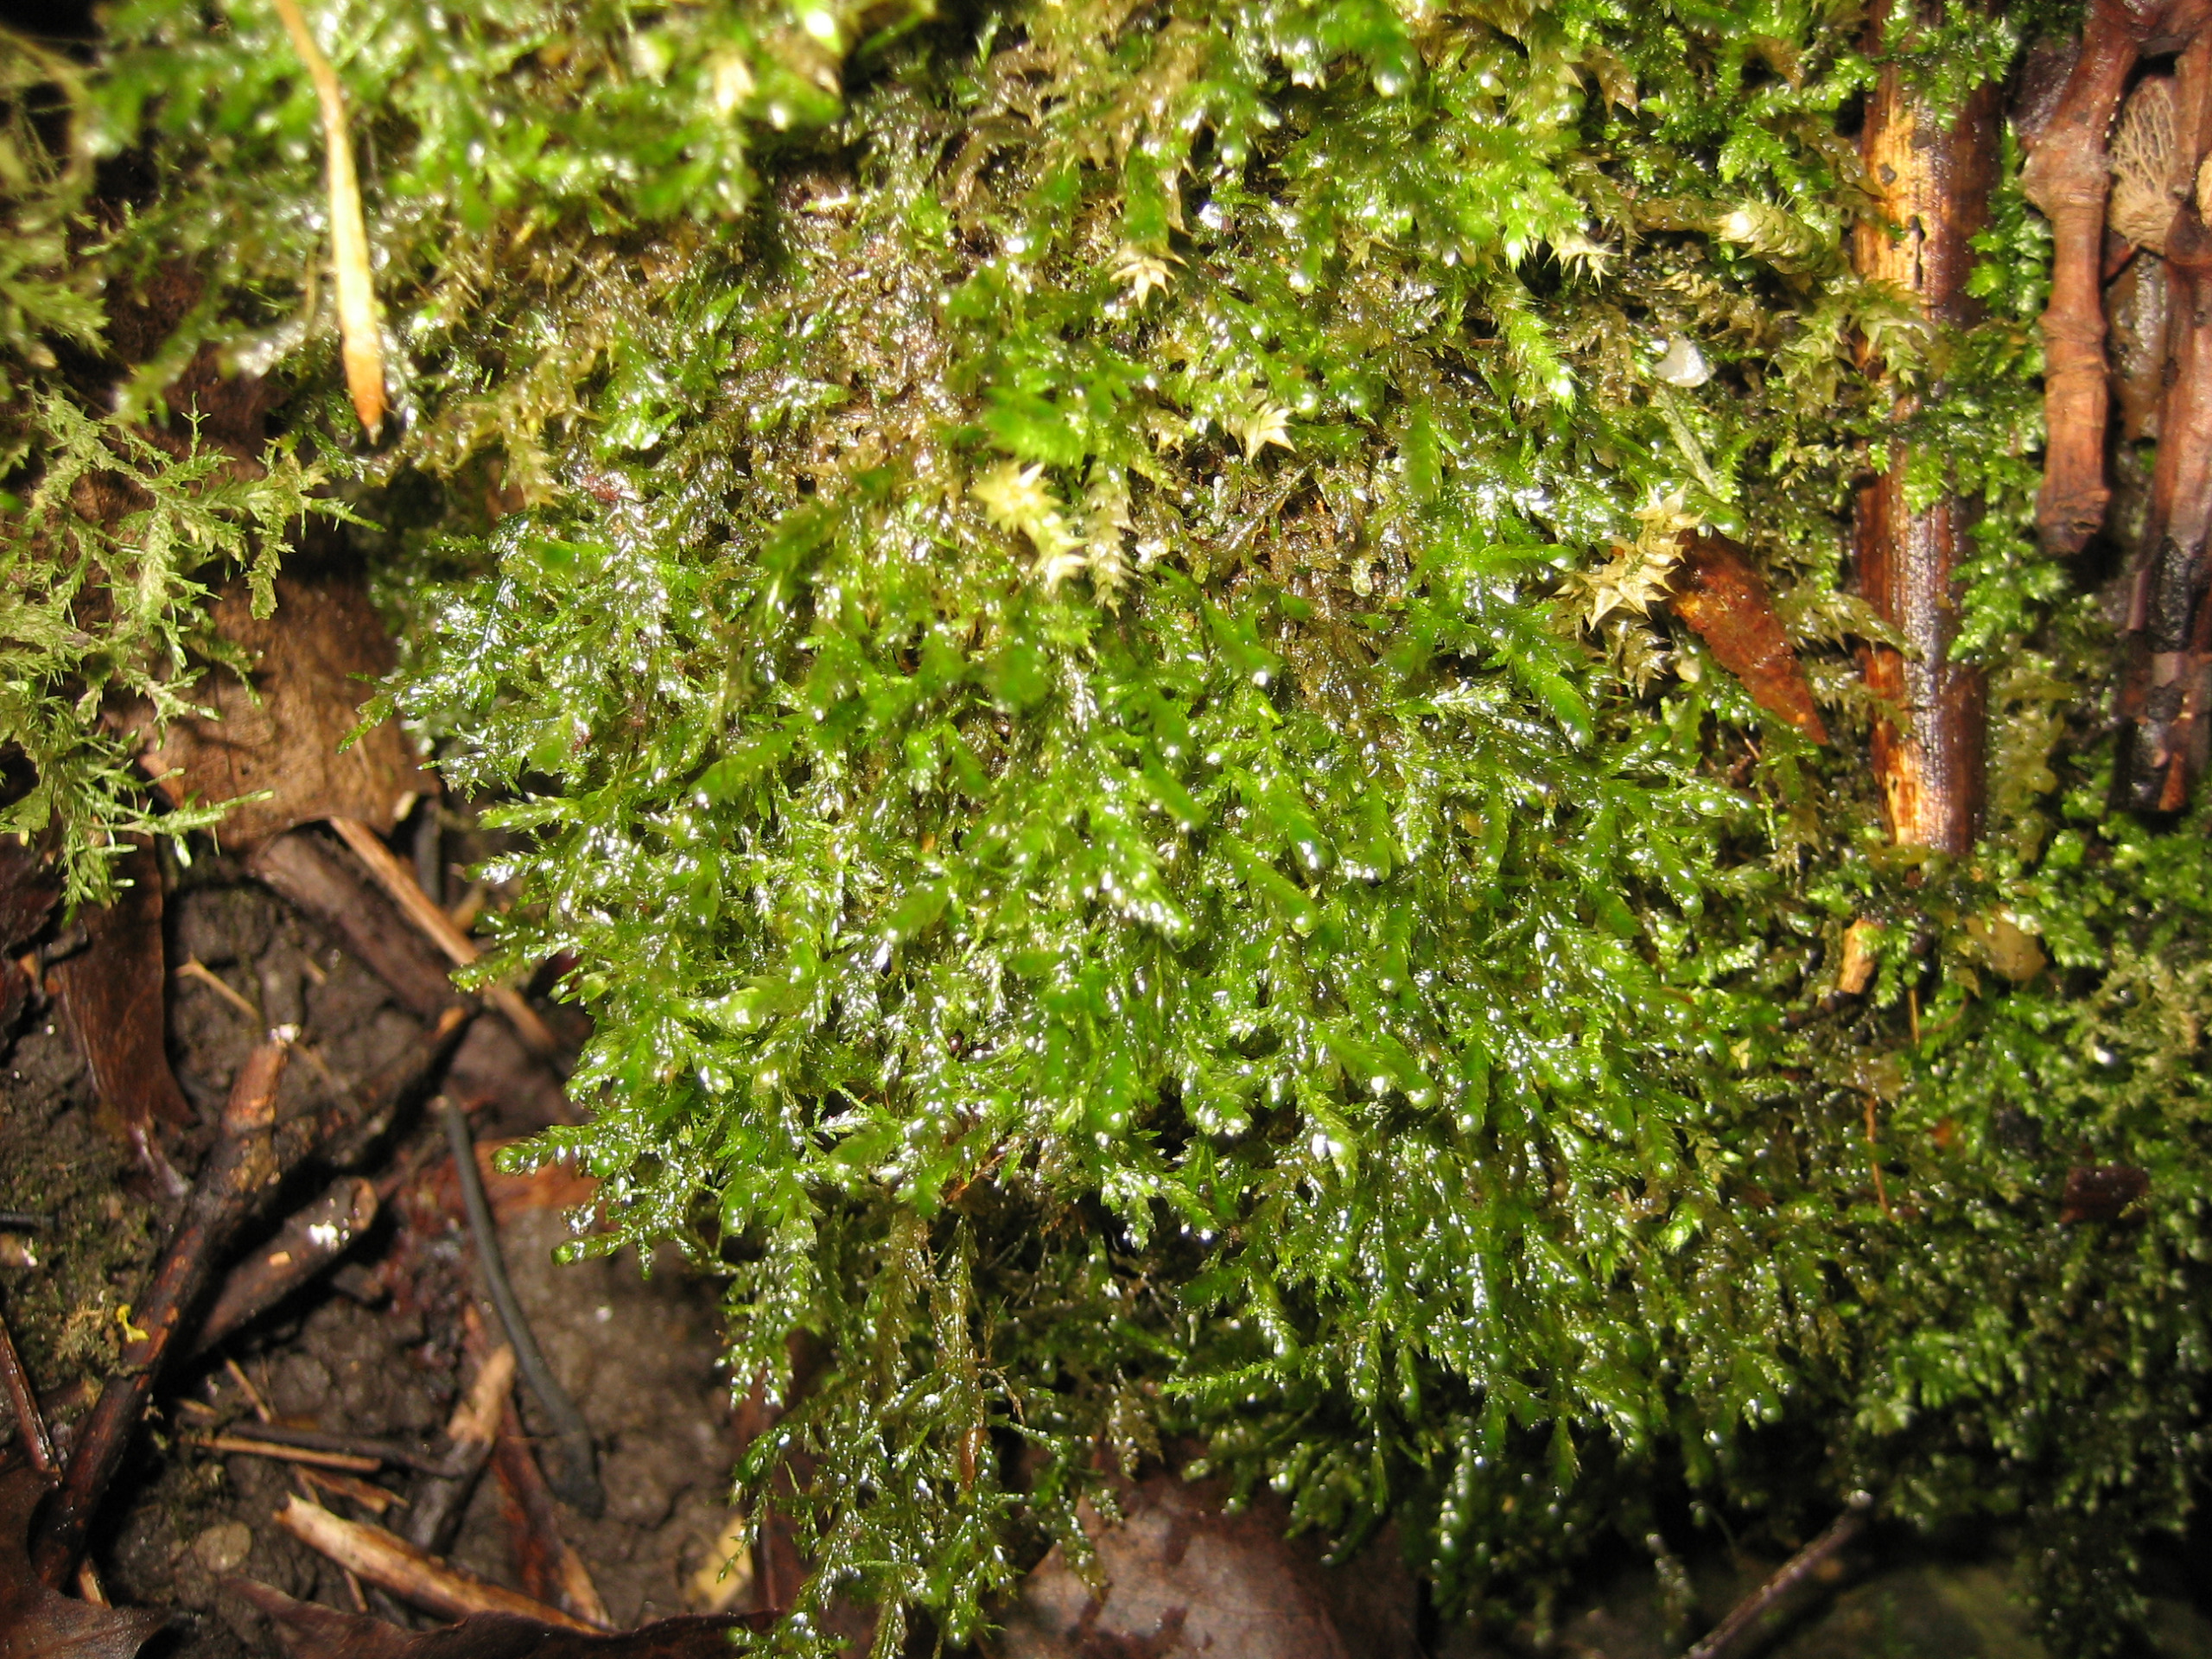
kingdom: Plantae
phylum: Bryophyta
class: Bryopsida
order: Hypnales
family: Neckeraceae
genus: Alleniella
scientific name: Alleniella complanata
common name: Almindelig fladmos
